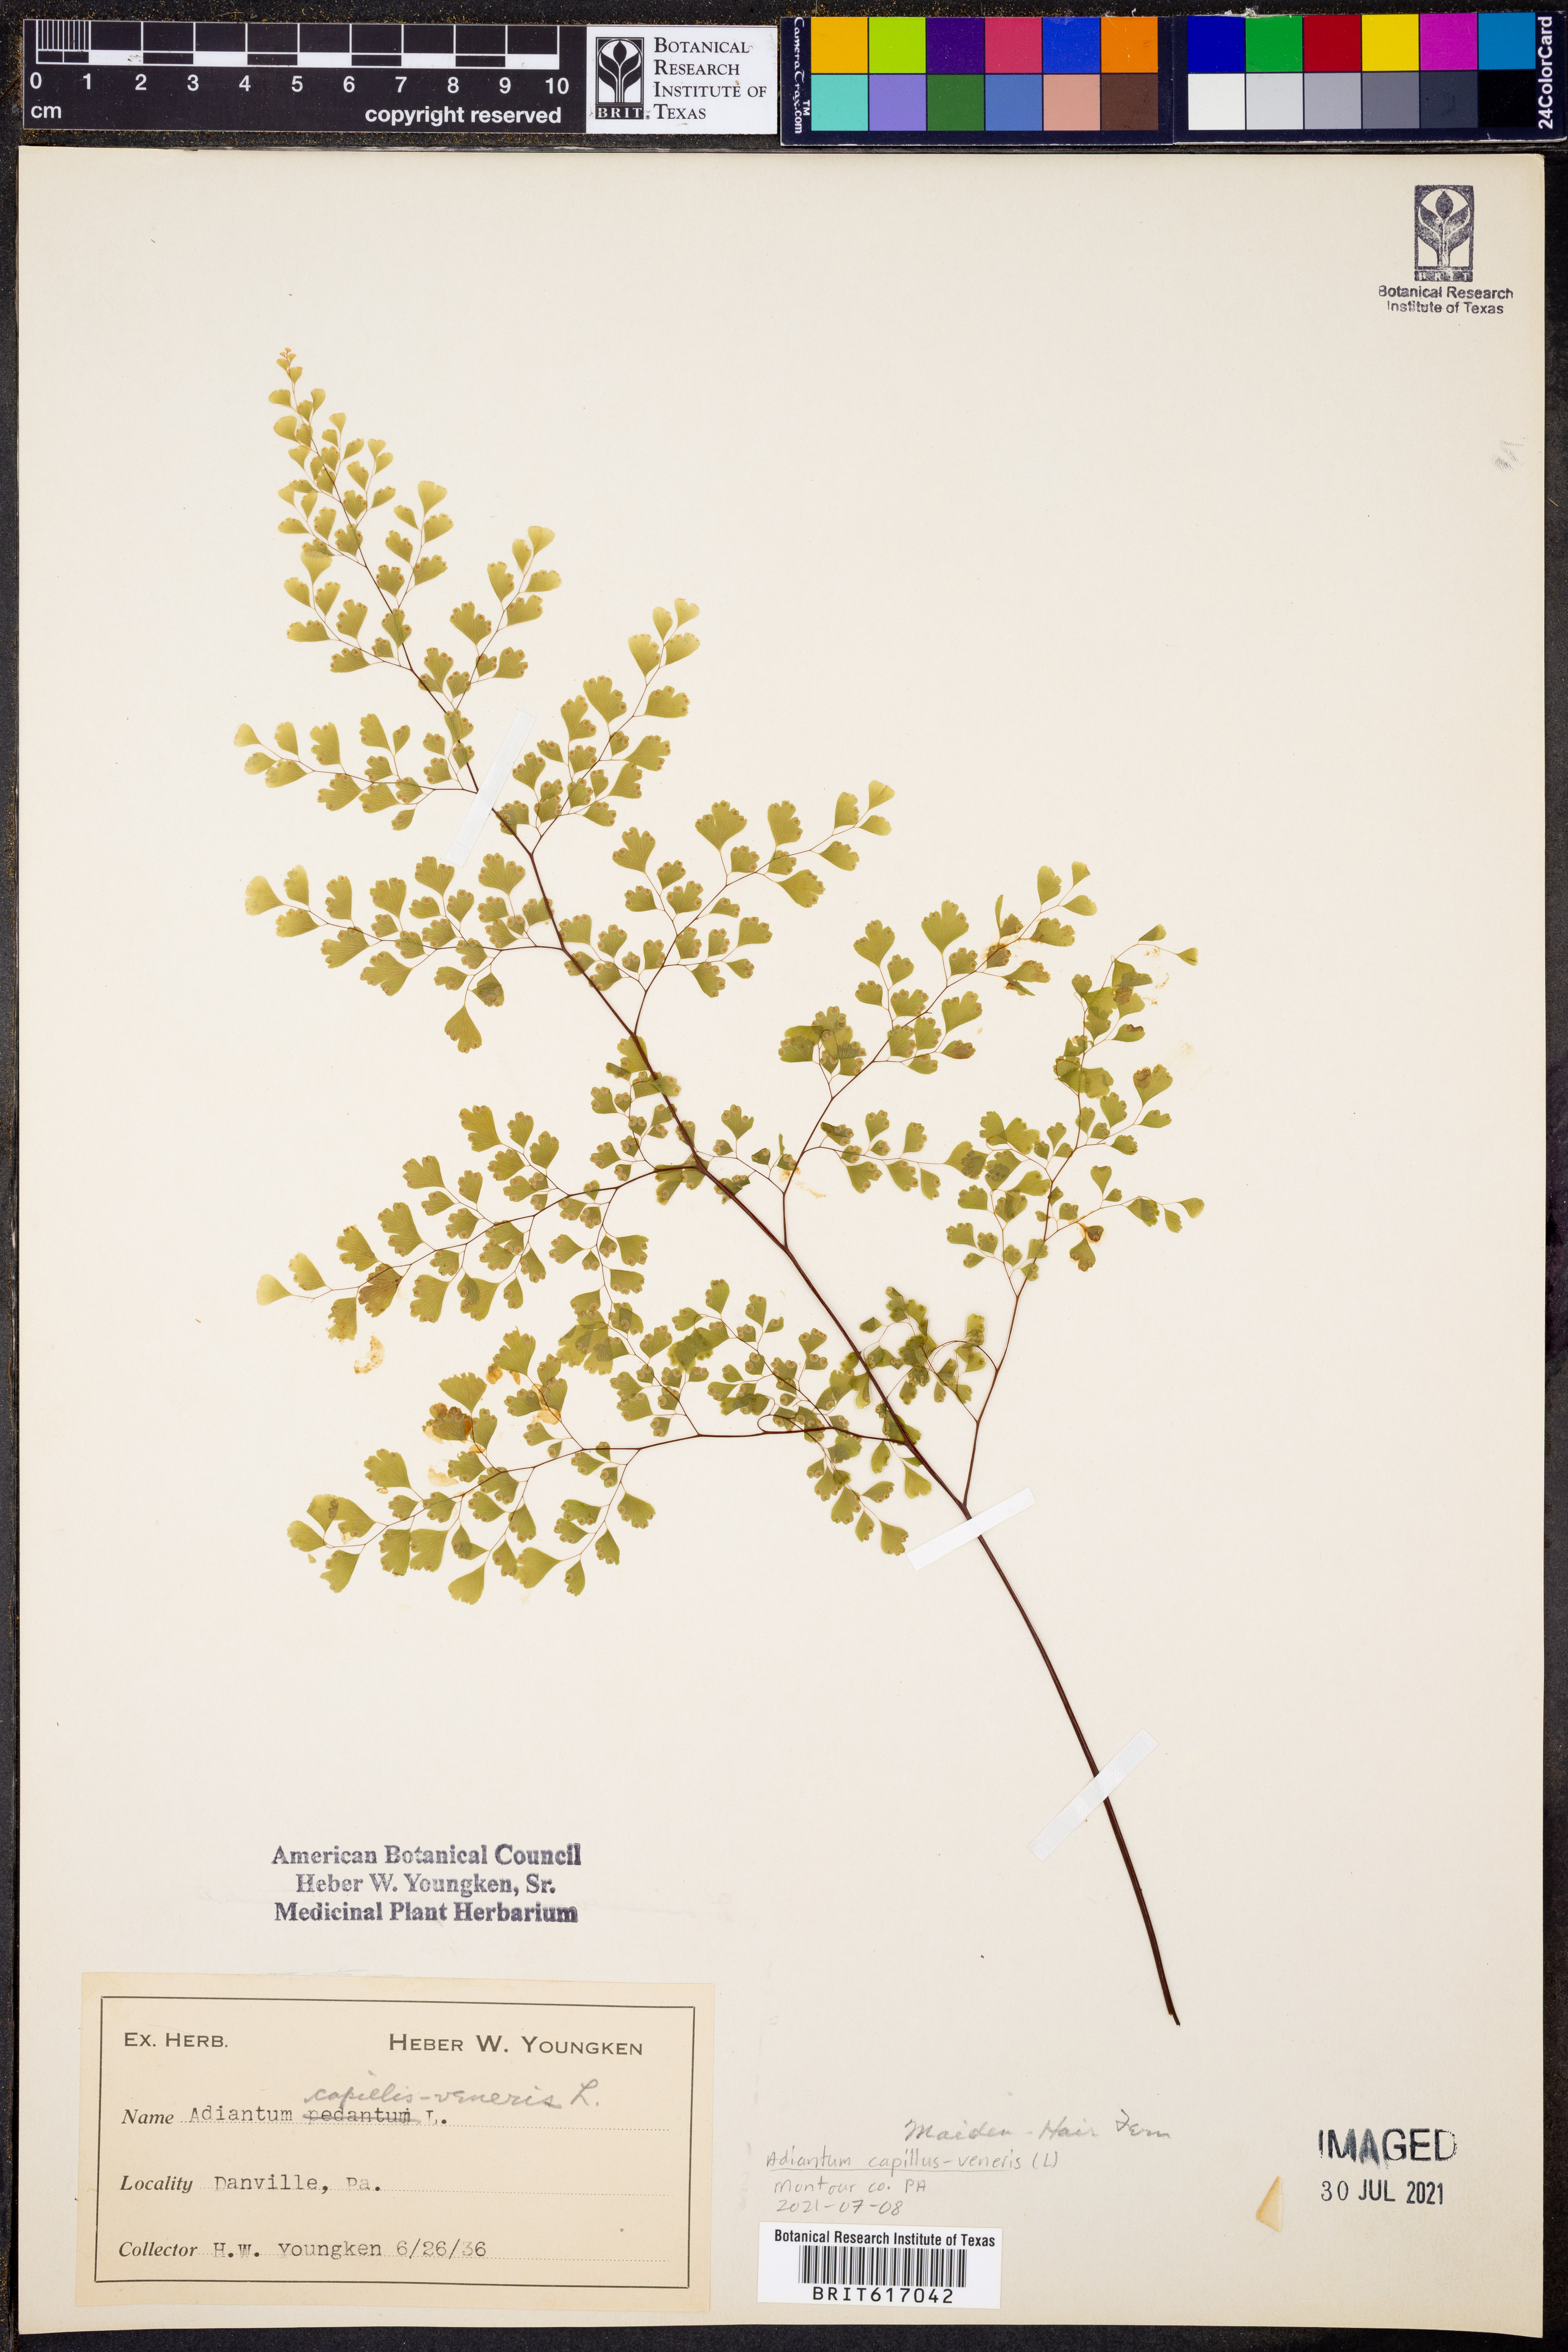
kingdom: Plantae
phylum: Tracheophyta
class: Polypodiopsida
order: Polypodiales
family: Pteridaceae
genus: Adiantum
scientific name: Adiantum capillus-veneris
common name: Maidenhair fern
